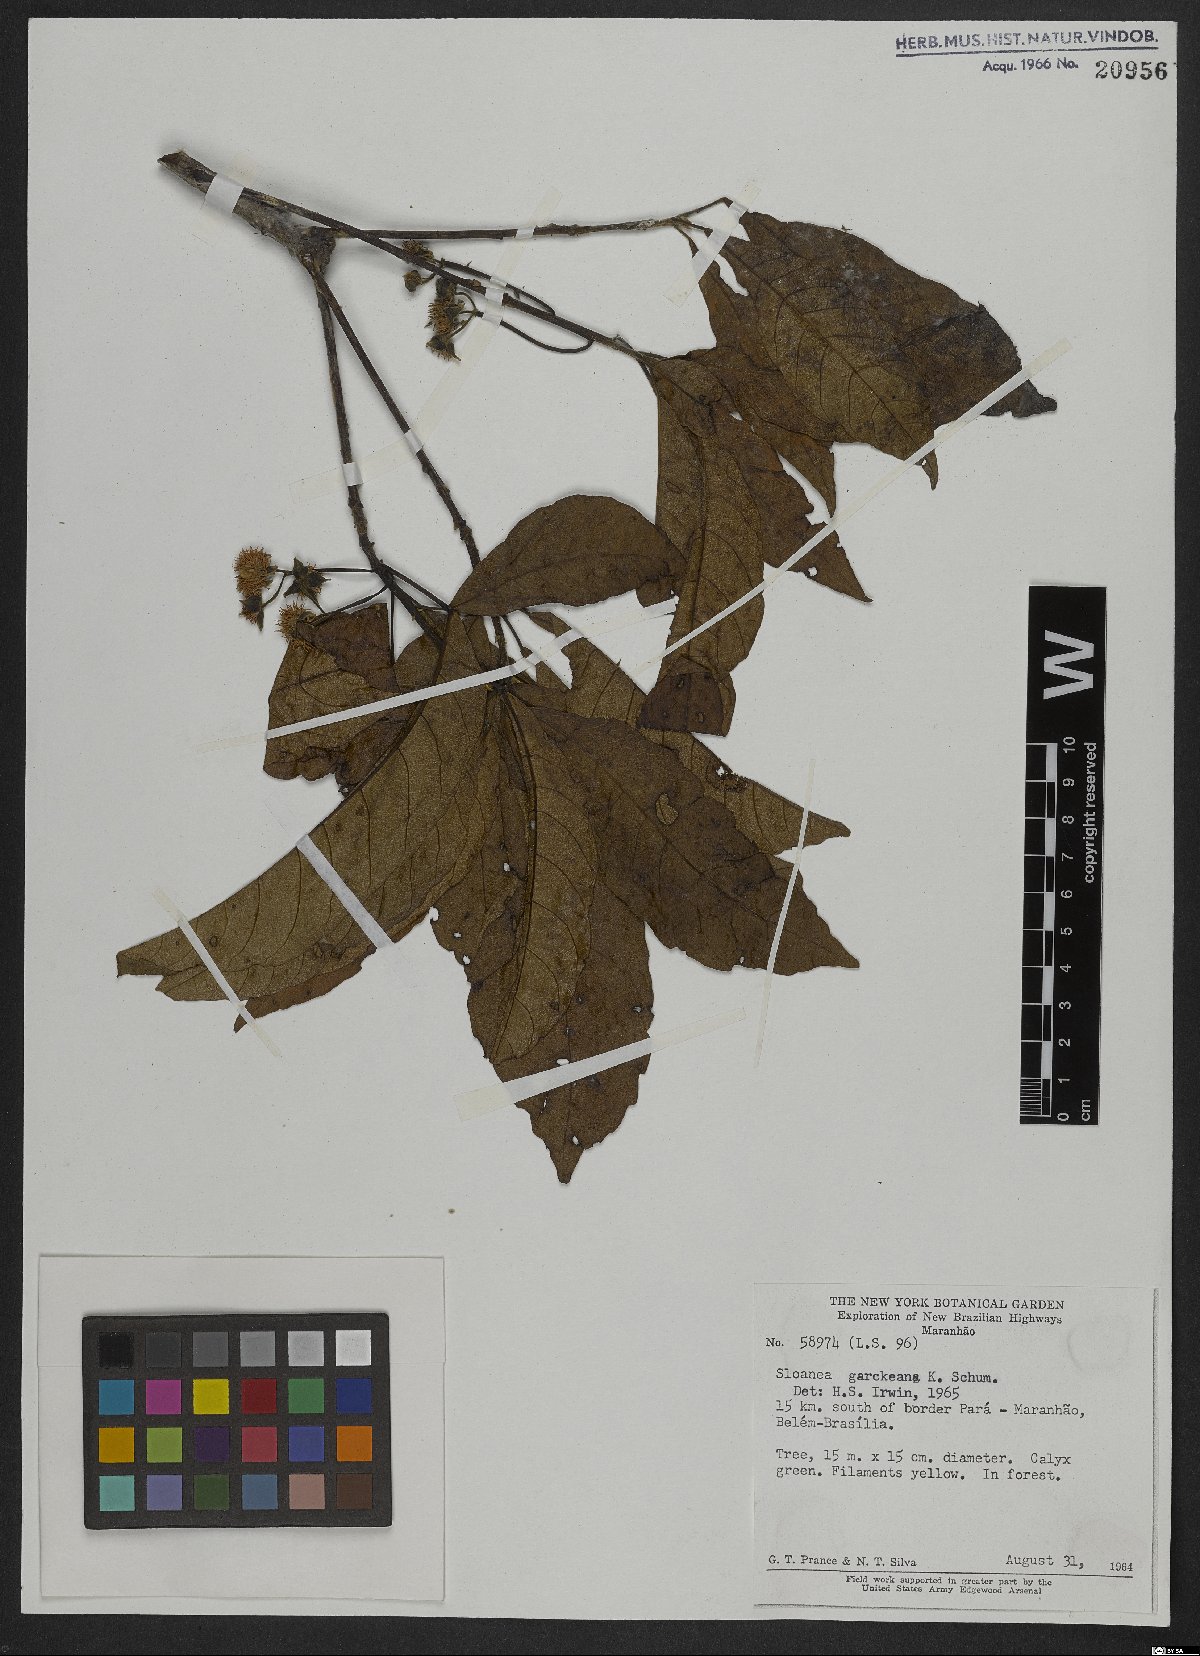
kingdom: Plantae
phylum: Tracheophyta
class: Magnoliopsida
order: Oxalidales
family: Elaeocarpaceae
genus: Sloanea
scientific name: Sloanea garckeana
